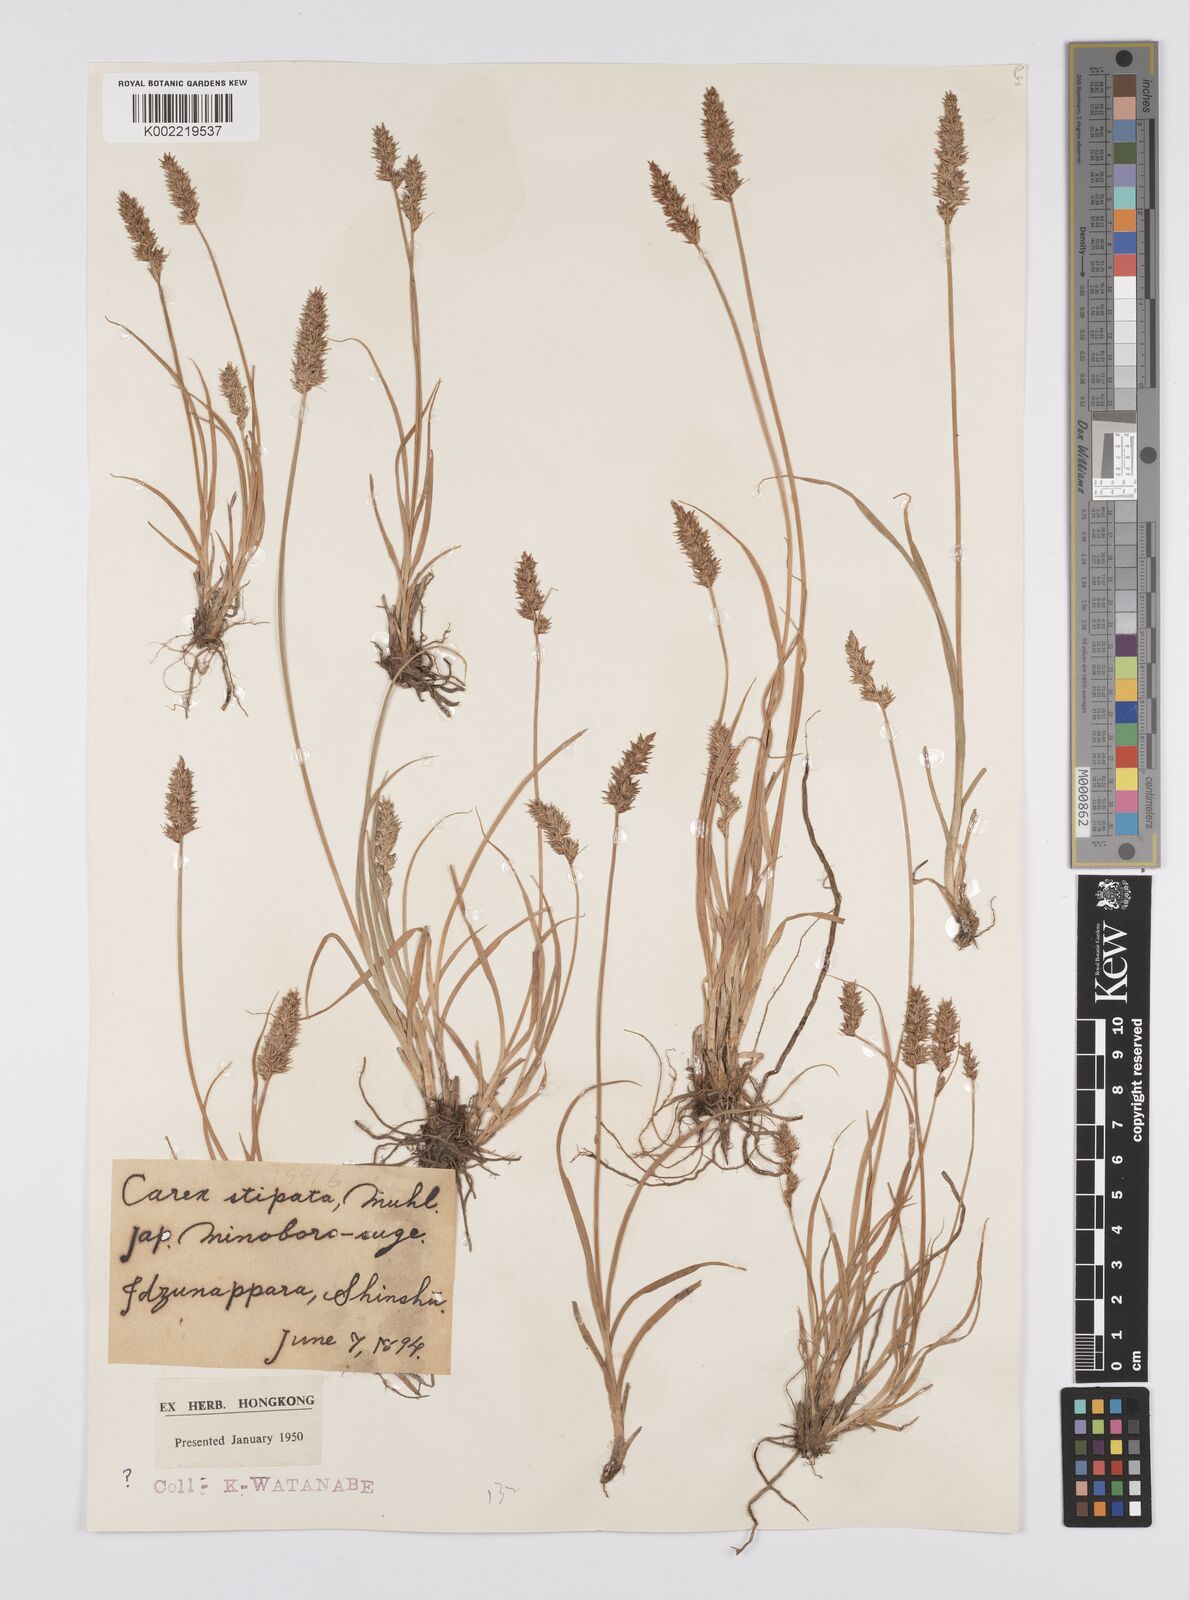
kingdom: Plantae
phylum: Tracheophyta
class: Liliopsida
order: Poales
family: Cyperaceae
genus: Carex
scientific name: Carex stipata
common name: Awl-fruited sedge
